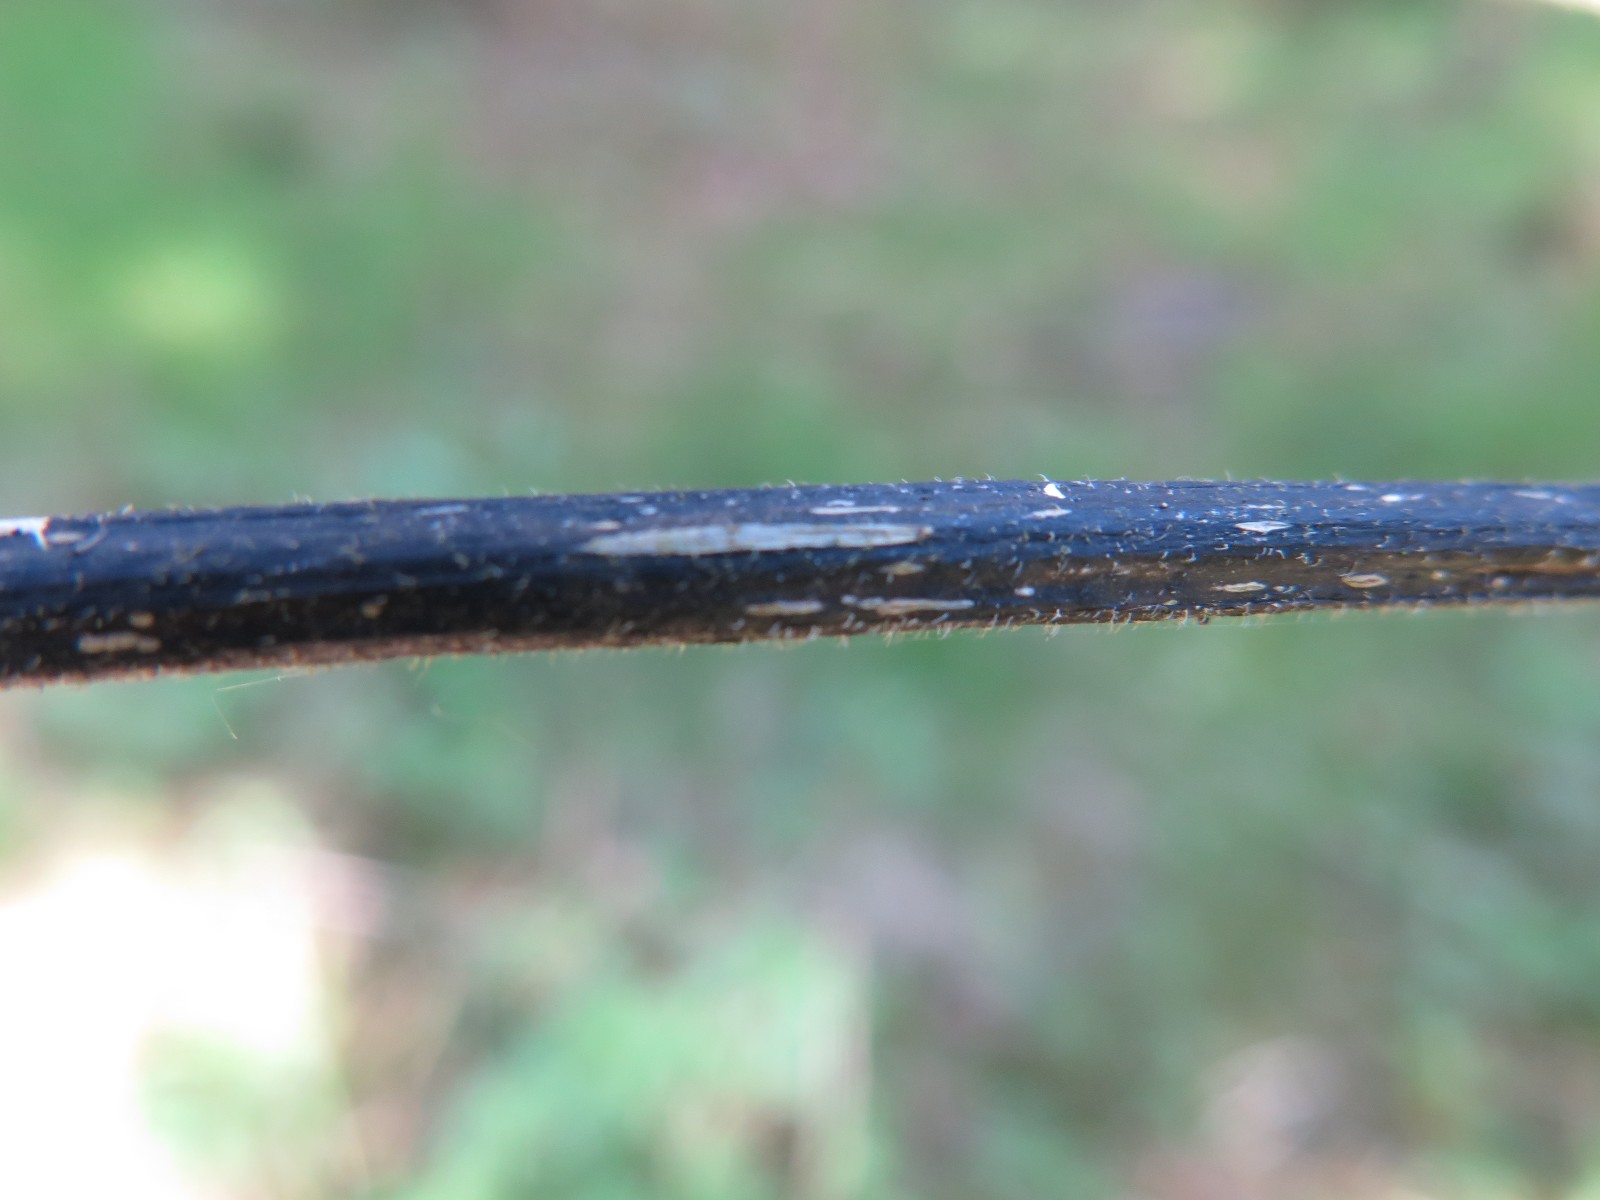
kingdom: Fungi
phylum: Ascomycota
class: Sordariomycetes
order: Diaporthales
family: Diaporthaceae
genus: Diaporthopsis
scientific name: Diaporthopsis urticae
